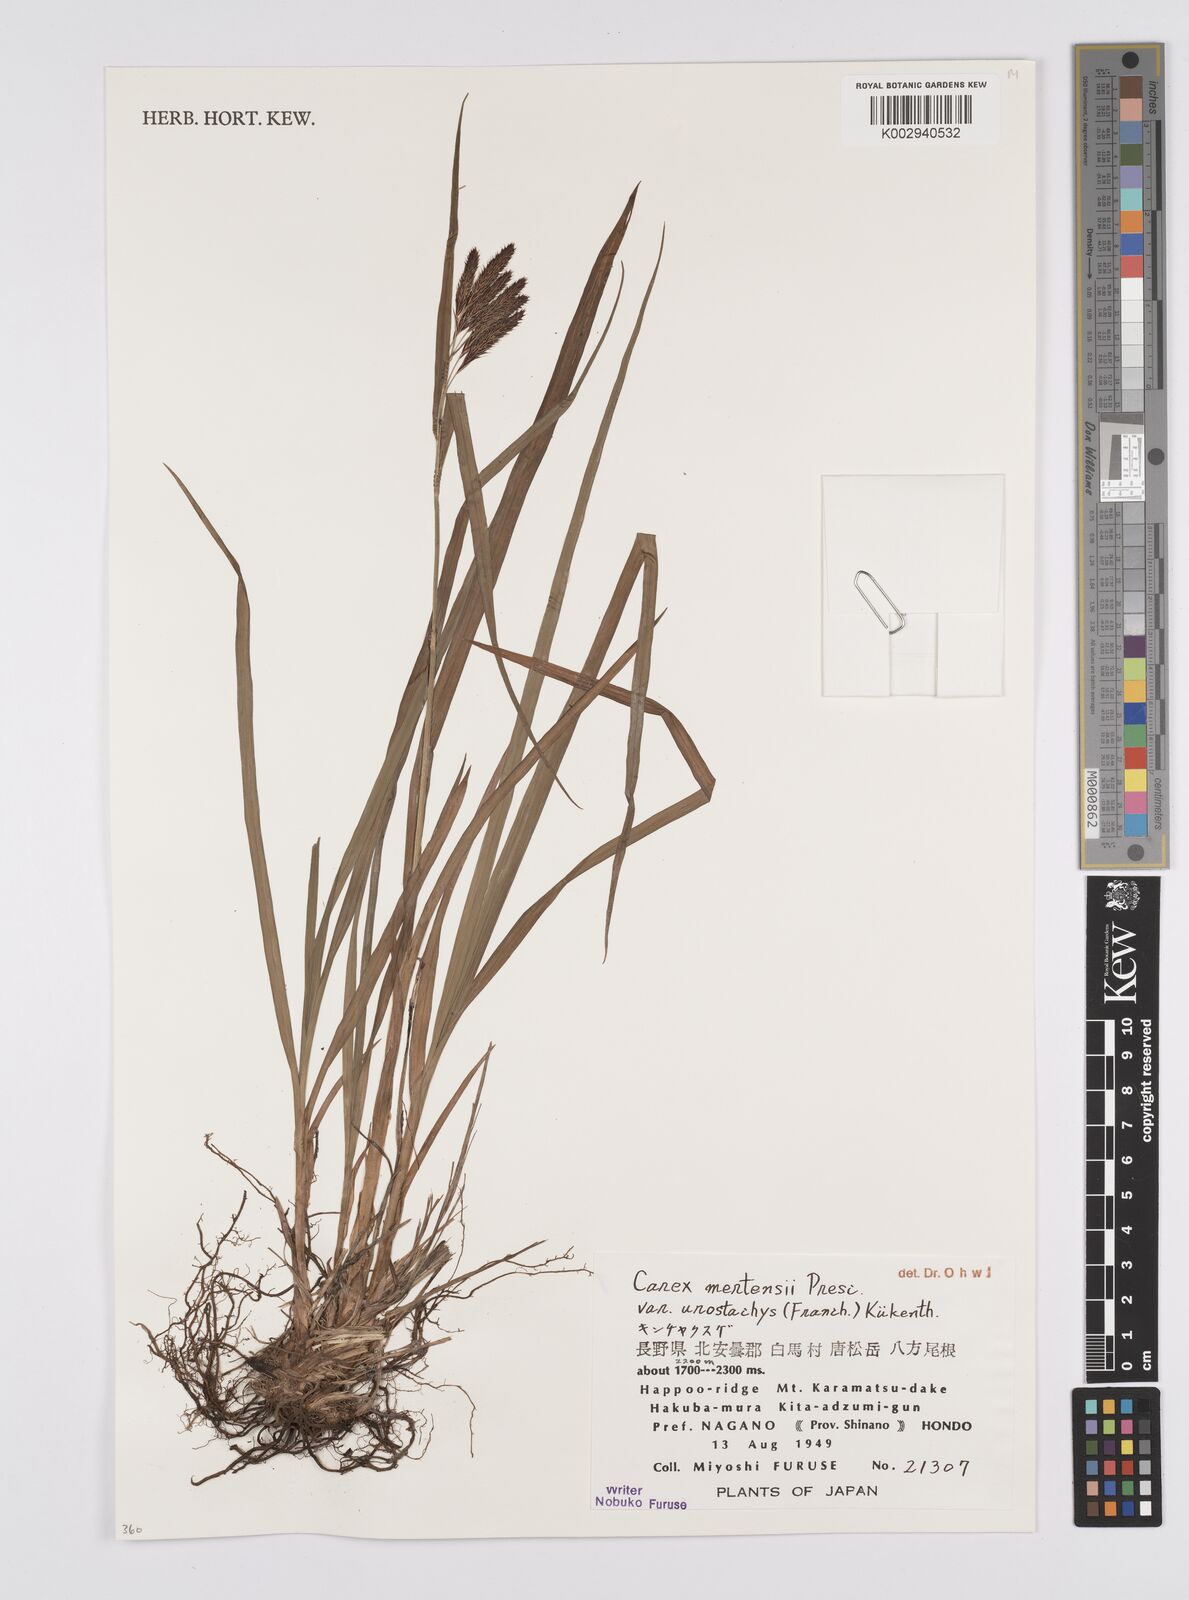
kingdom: Plantae
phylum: Tracheophyta
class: Liliopsida
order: Poales
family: Cyperaceae
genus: Carex
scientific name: Carex mertensii
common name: Mertens' sedge
